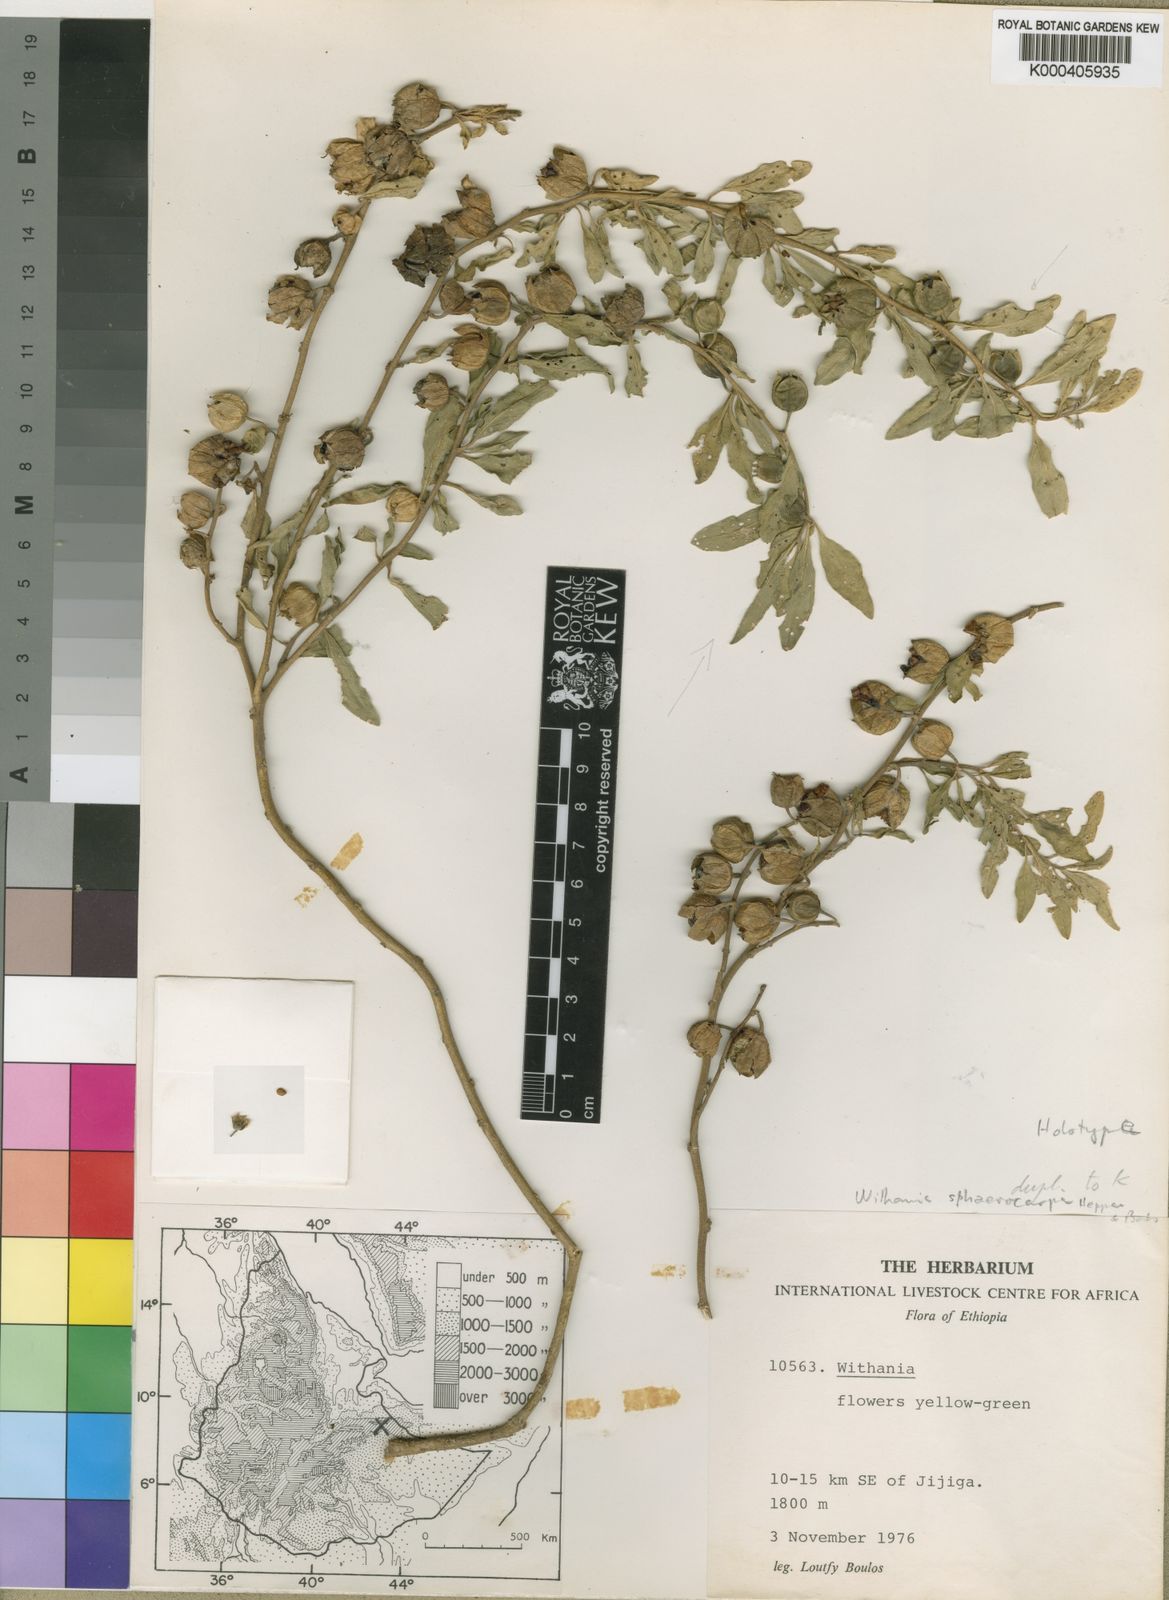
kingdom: Plantae
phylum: Tracheophyta
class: Magnoliopsida
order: Solanales
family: Solanaceae
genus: Withania
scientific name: Withania sphaerocarpa
